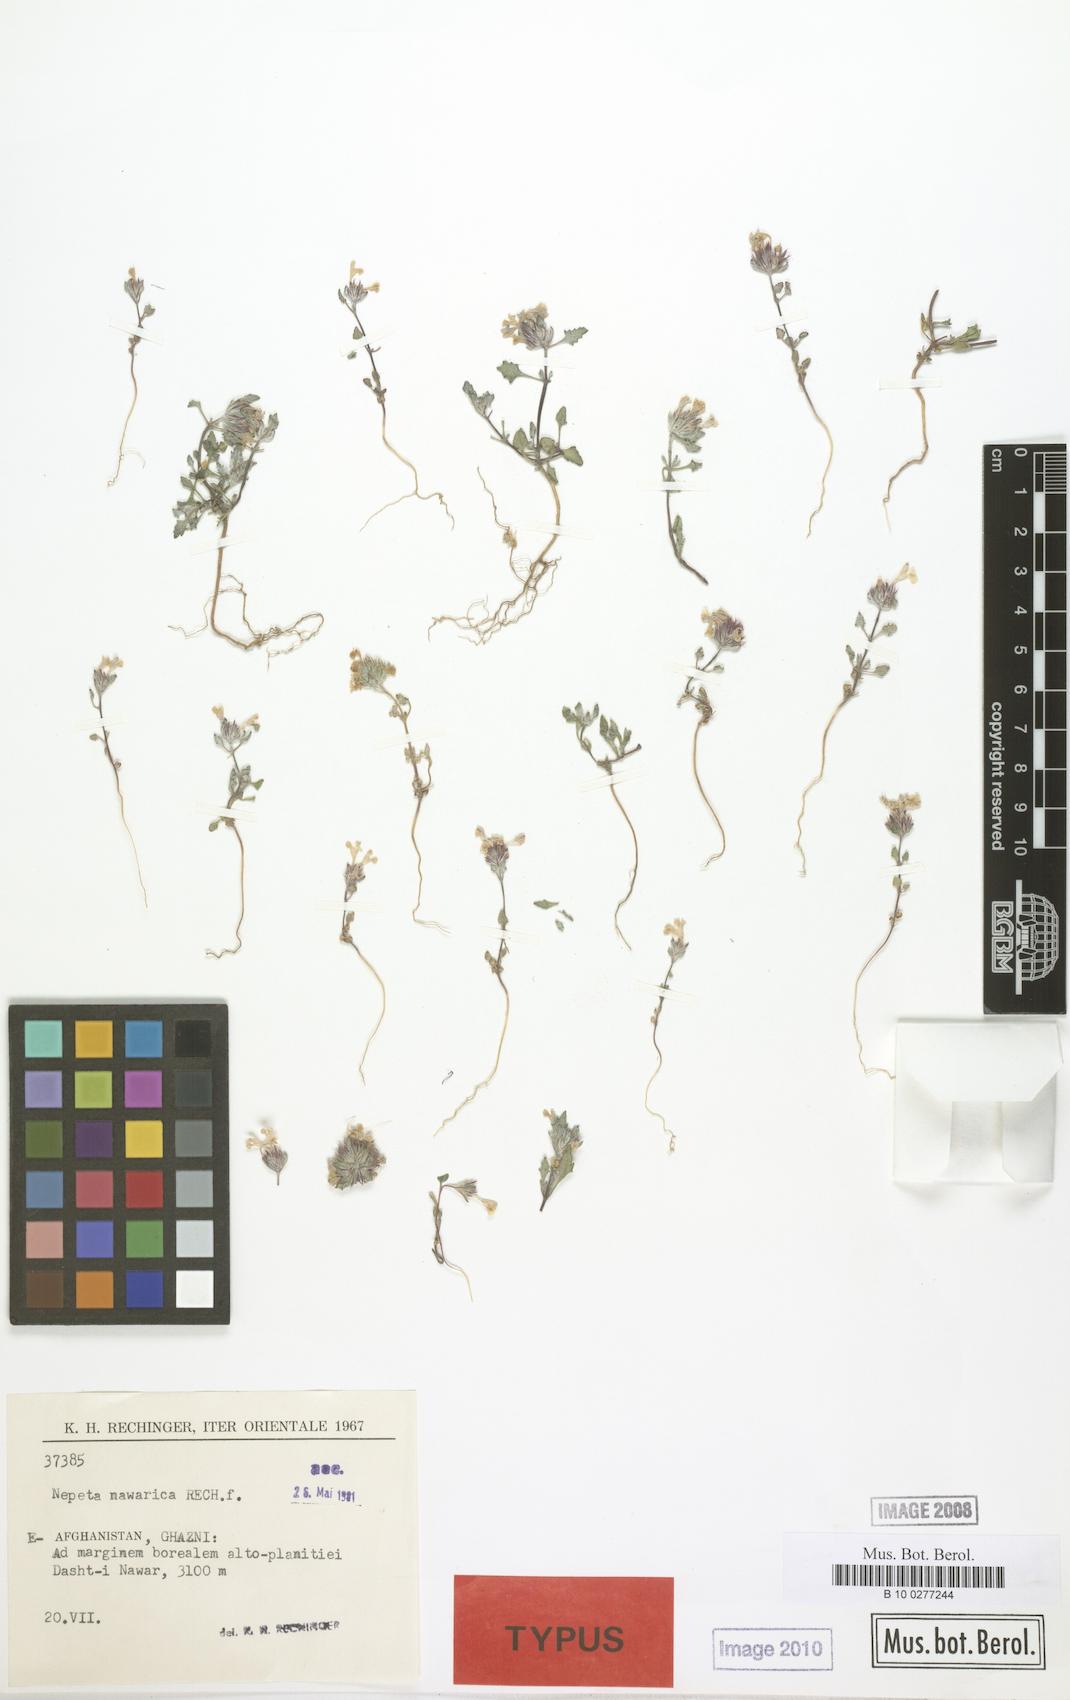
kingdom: Plantae
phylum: Tracheophyta
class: Magnoliopsida
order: Lamiales
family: Lamiaceae
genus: Nepeta
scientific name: Nepeta nawarica
